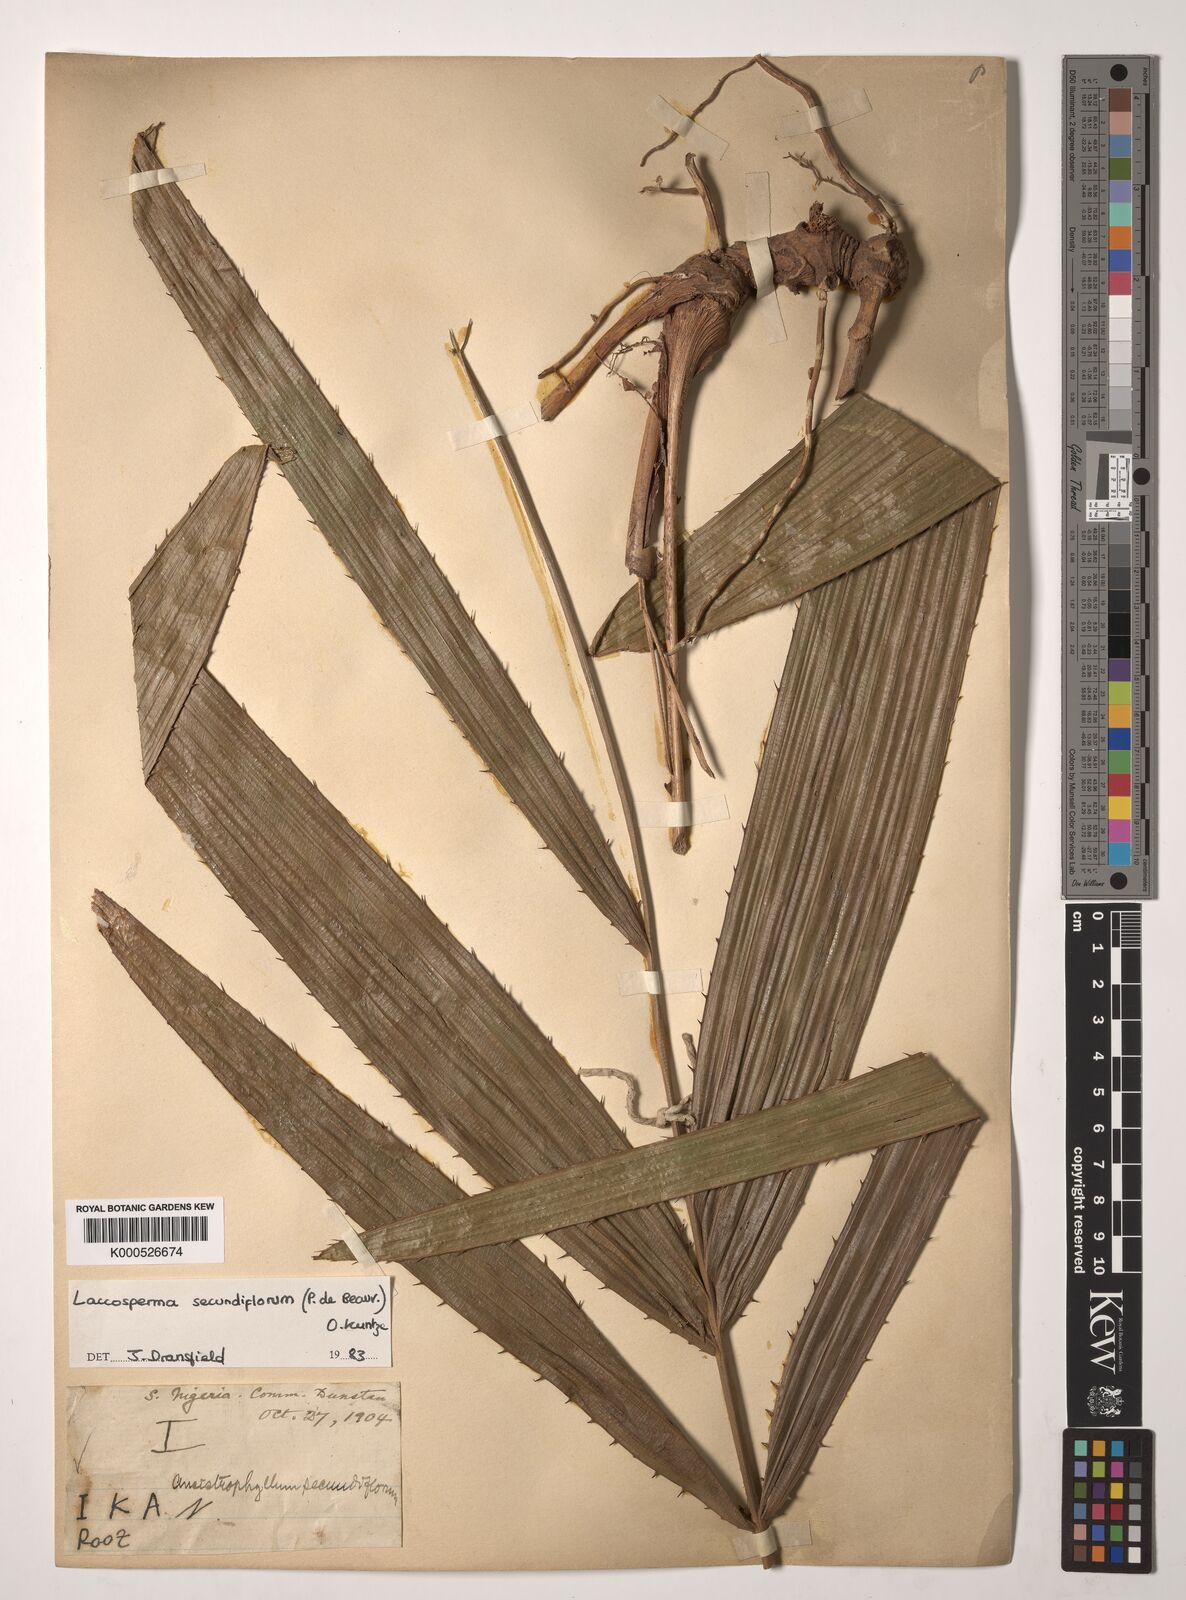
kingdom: Plantae
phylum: Tracheophyta
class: Liliopsida
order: Arecales
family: Arecaceae
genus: Laccosperma
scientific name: Laccosperma secundiflorum
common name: Rattan
